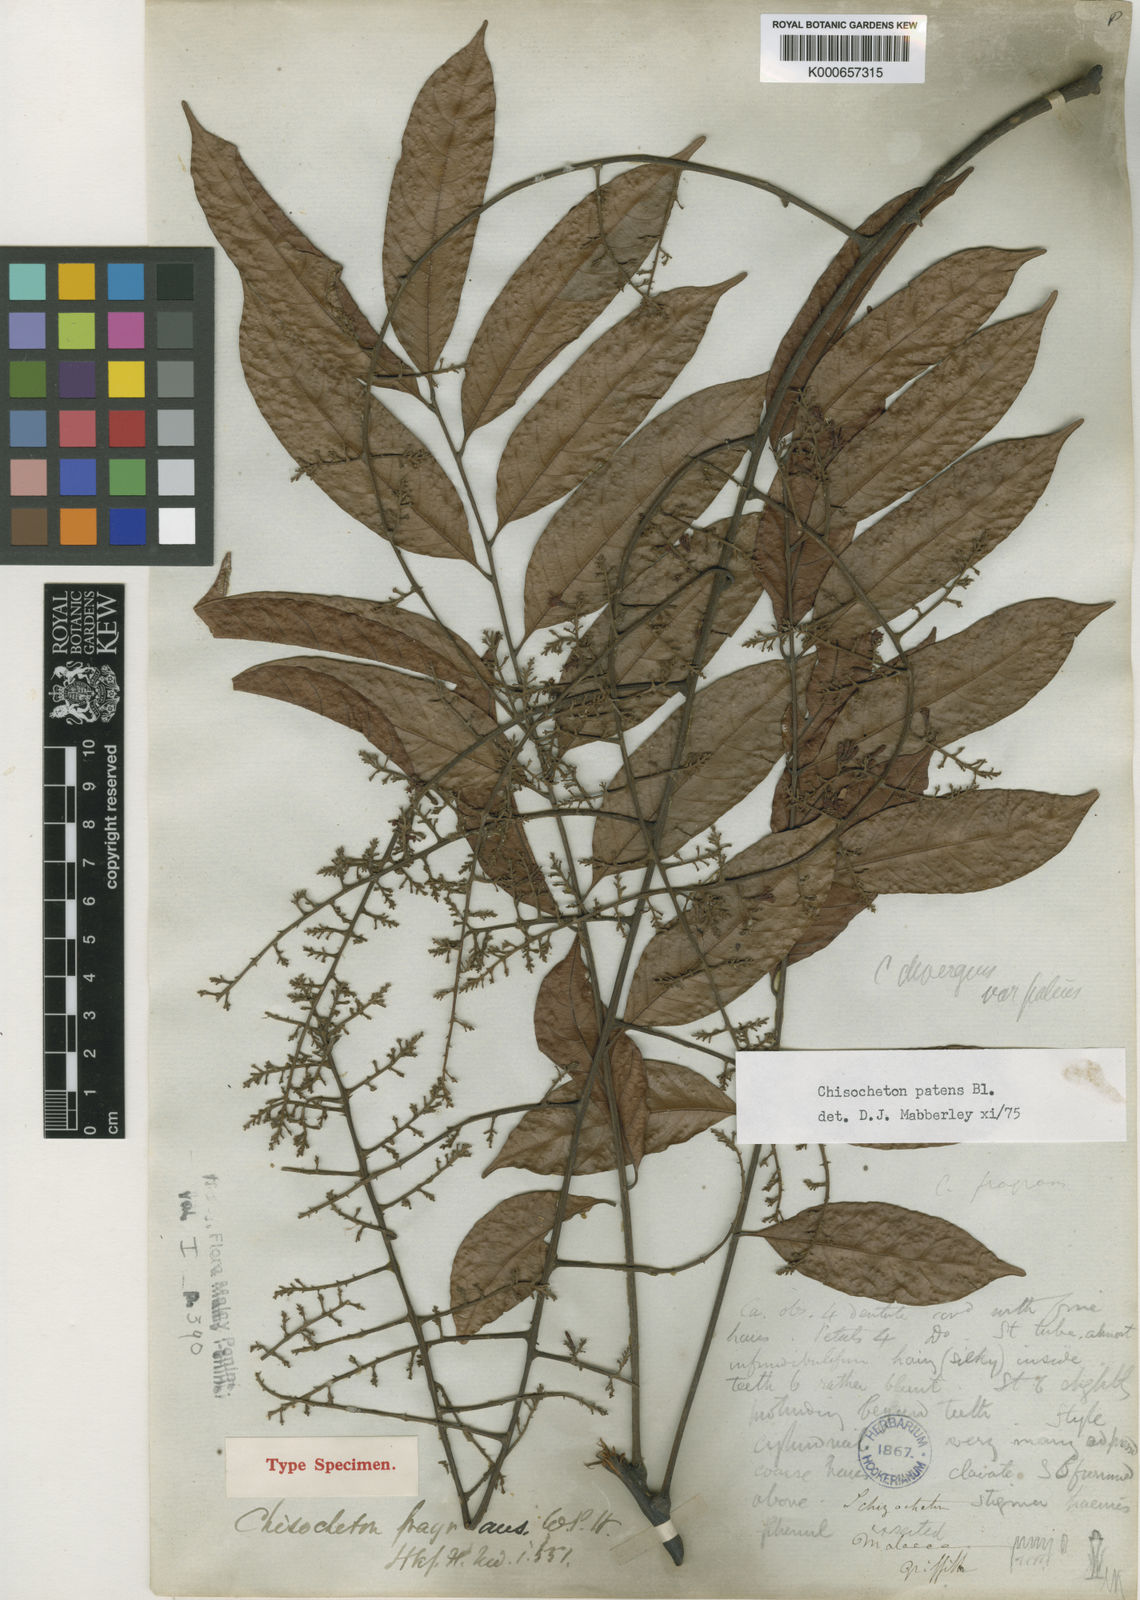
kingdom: Plantae
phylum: Tracheophyta
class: Magnoliopsida
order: Sapindales
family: Meliaceae
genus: Chisocheton
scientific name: Chisocheton patens
